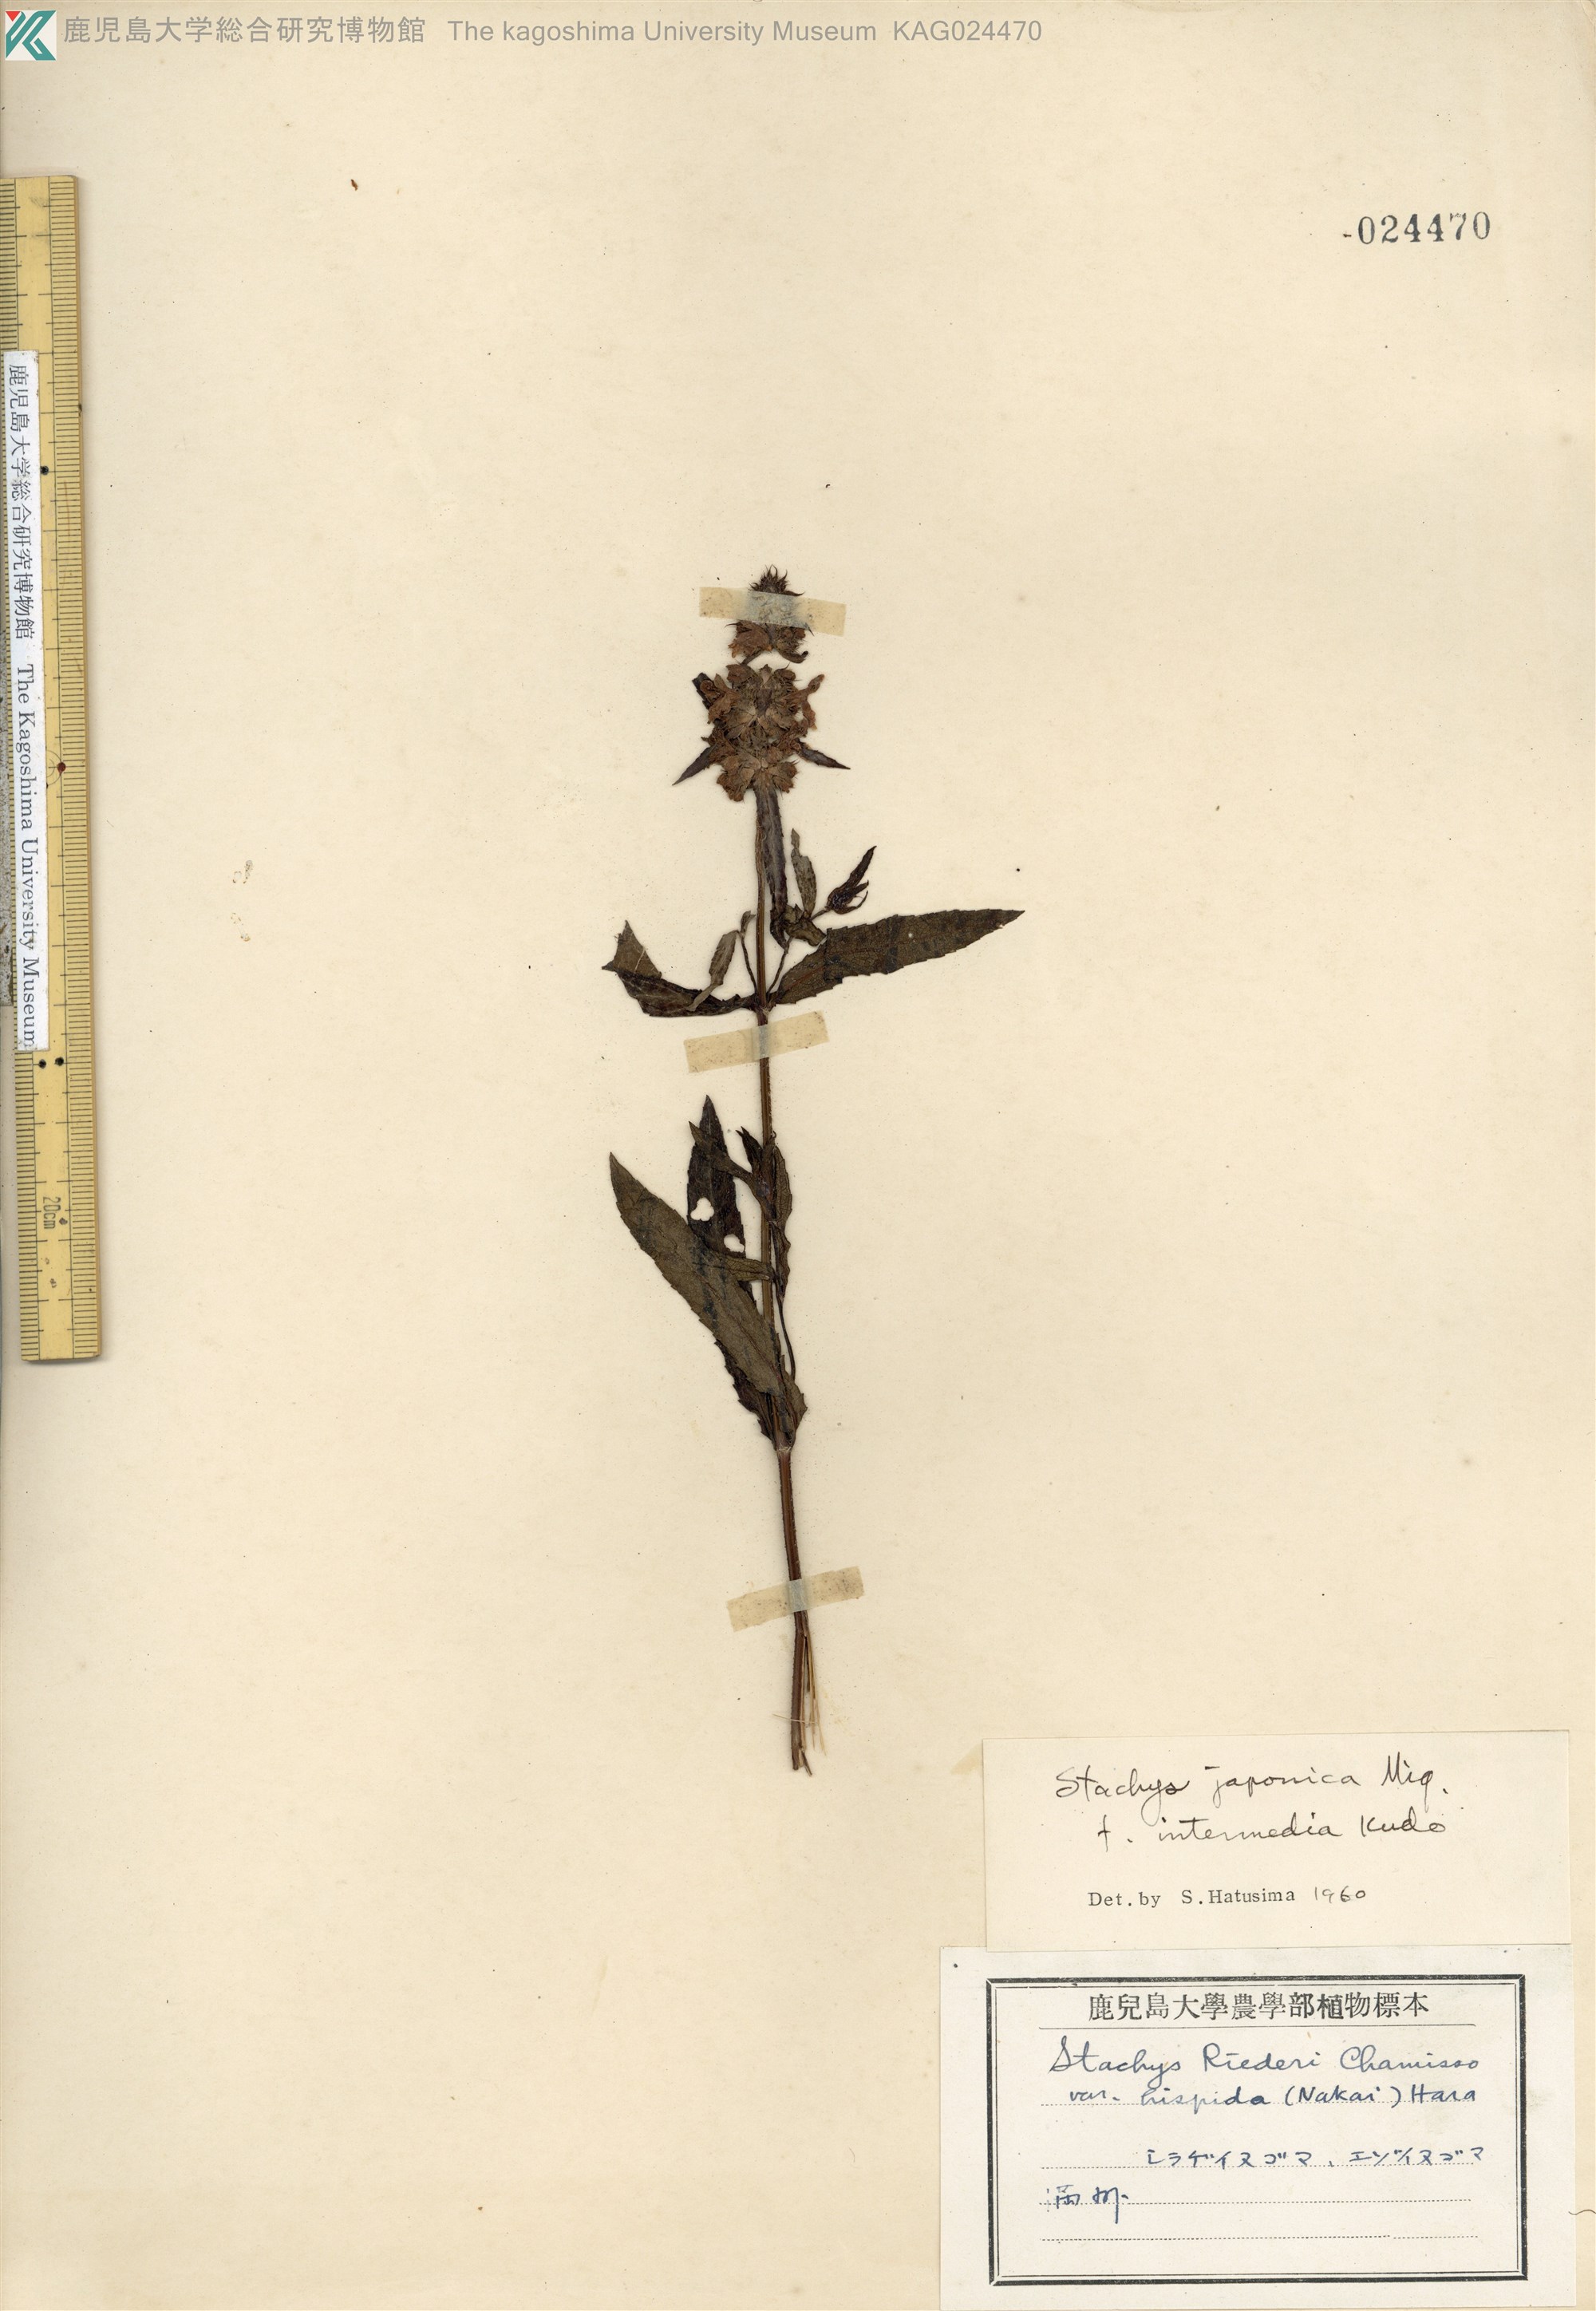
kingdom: Plantae
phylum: Tracheophyta
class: Magnoliopsida
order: Lamiales
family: Lamiaceae
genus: Stachys
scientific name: Stachys aspera
